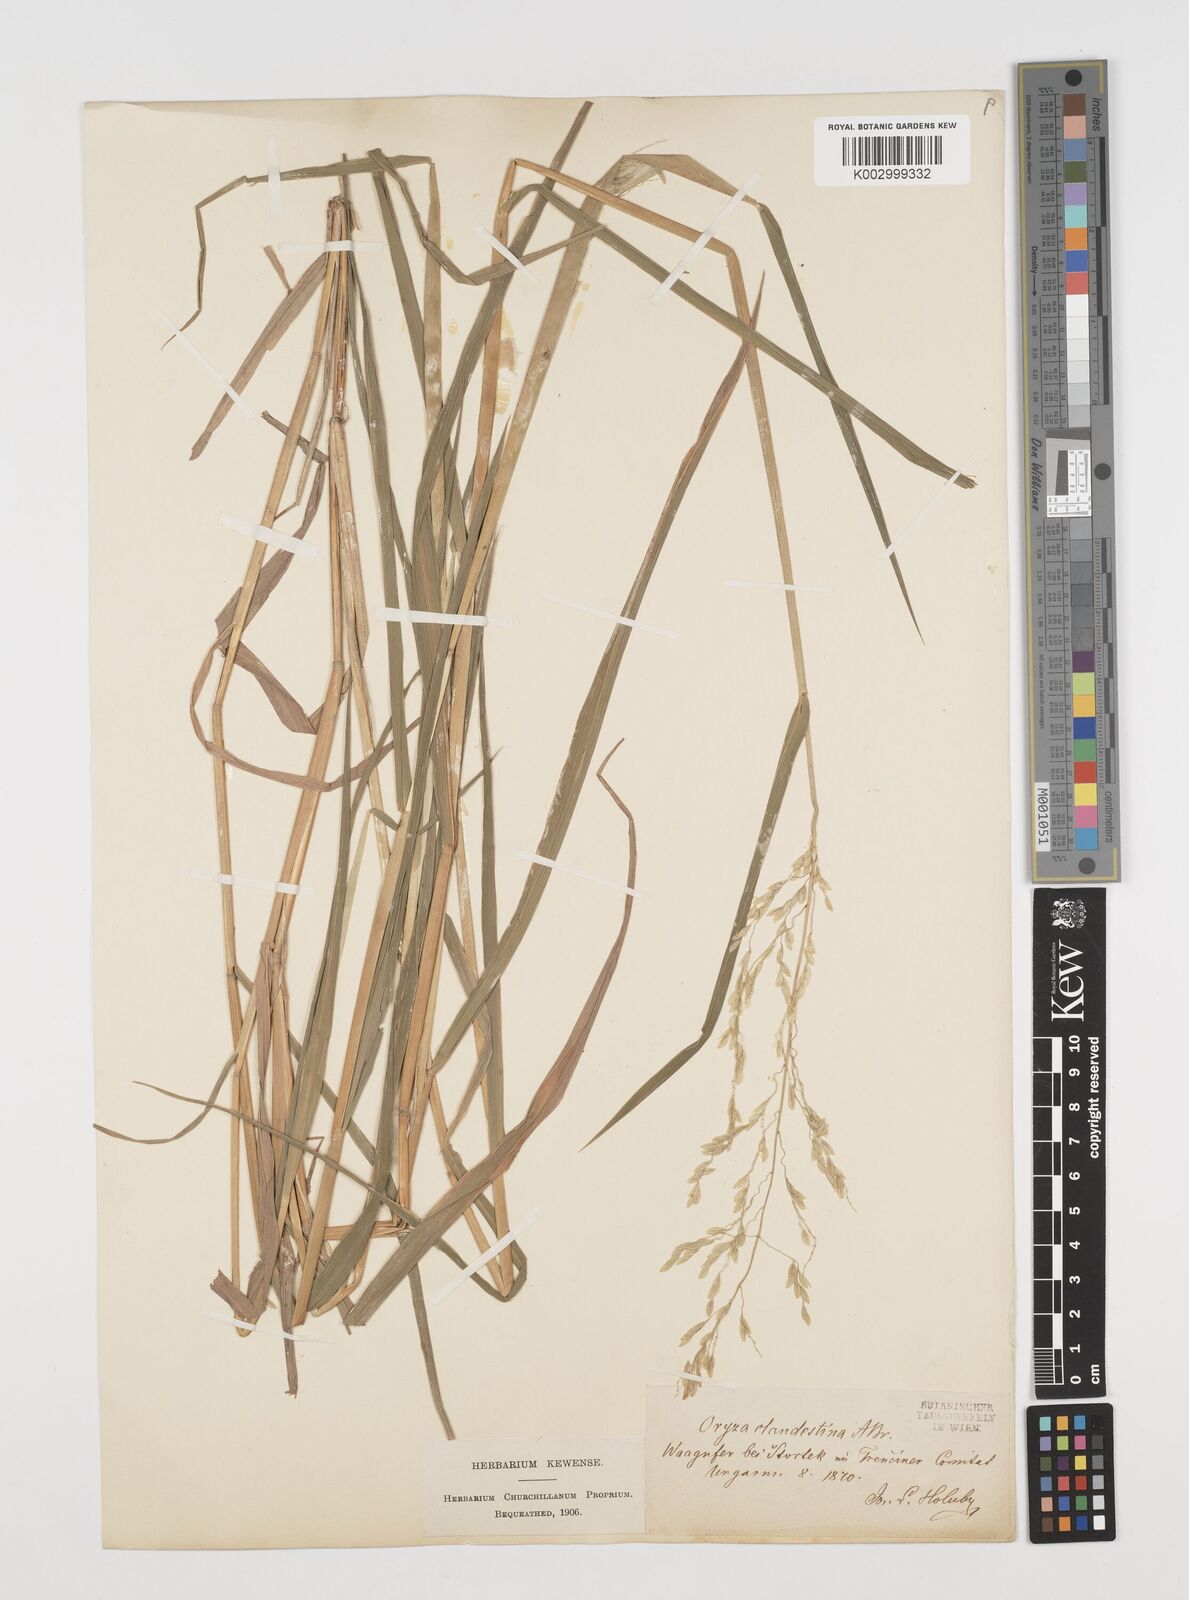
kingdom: Plantae
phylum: Tracheophyta
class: Liliopsida
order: Poales
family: Poaceae
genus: Leersia
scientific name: Leersia oryzoides
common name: Cut-grass
